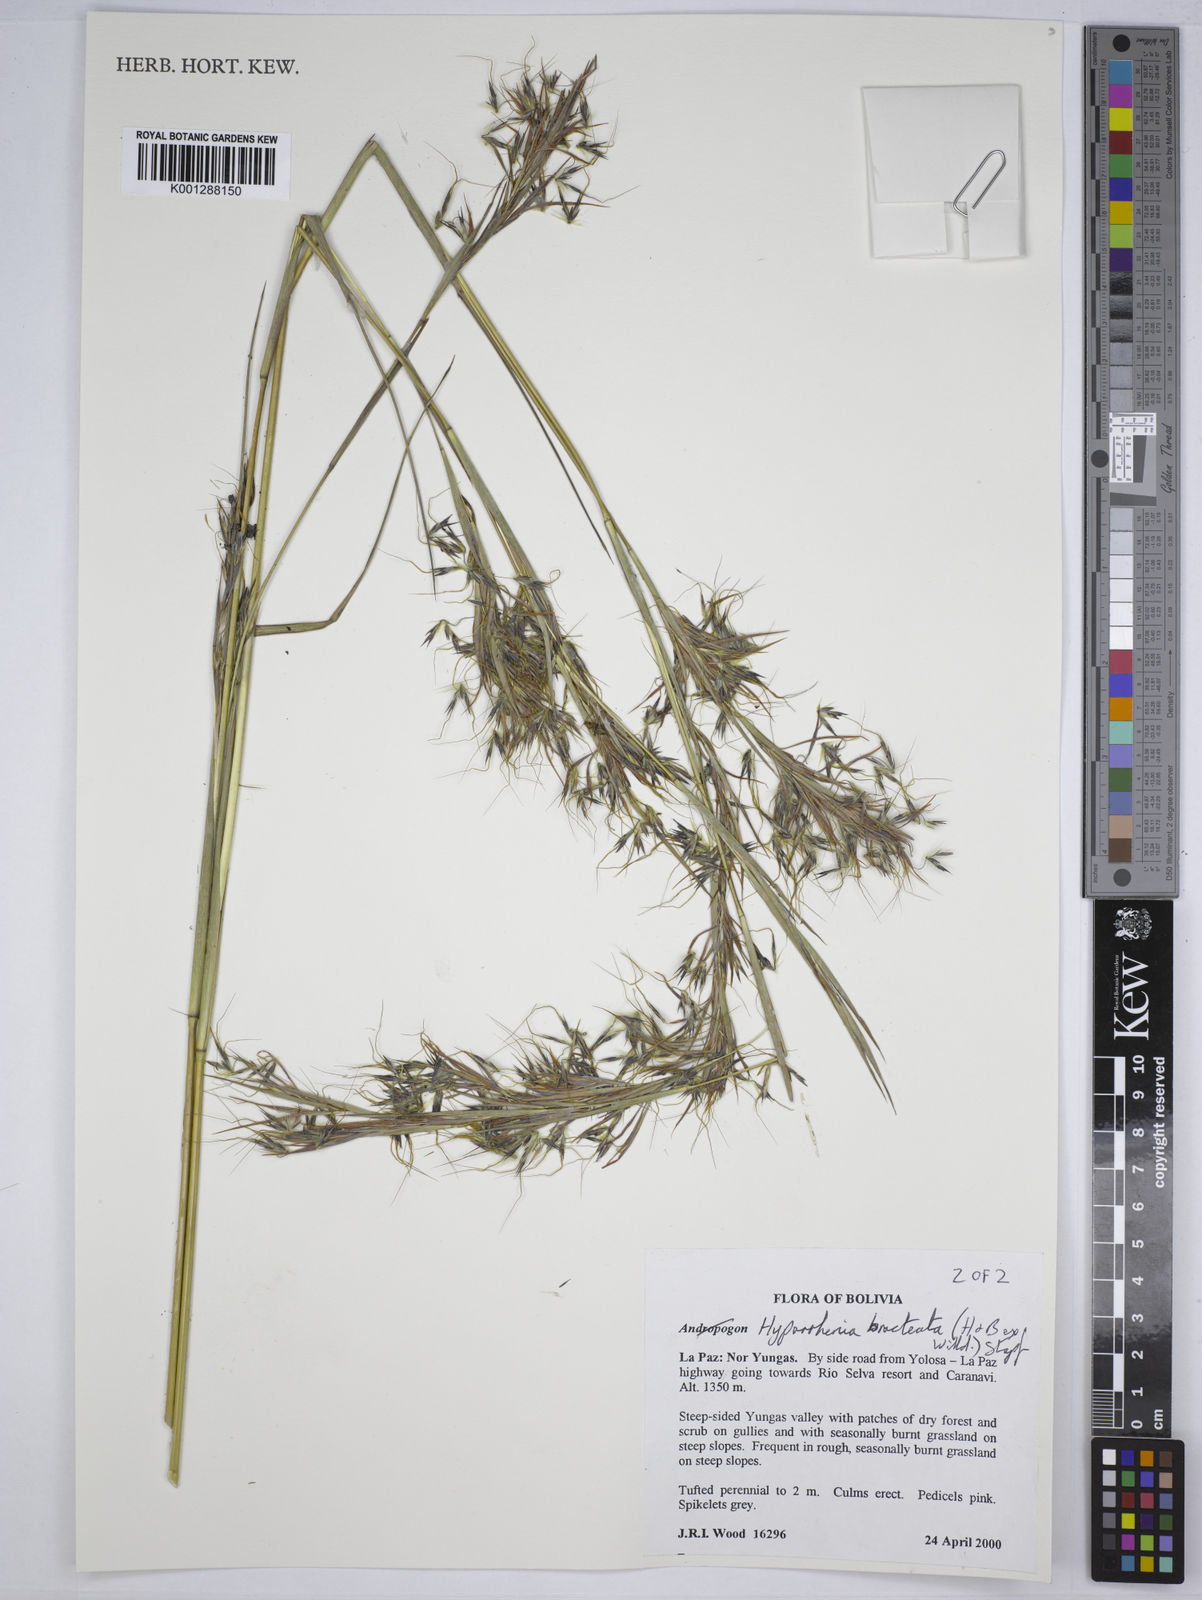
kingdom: Plantae
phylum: Tracheophyta
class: Liliopsida
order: Poales
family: Poaceae
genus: Hyparrhenia
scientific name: Hyparrhenia bracteata
